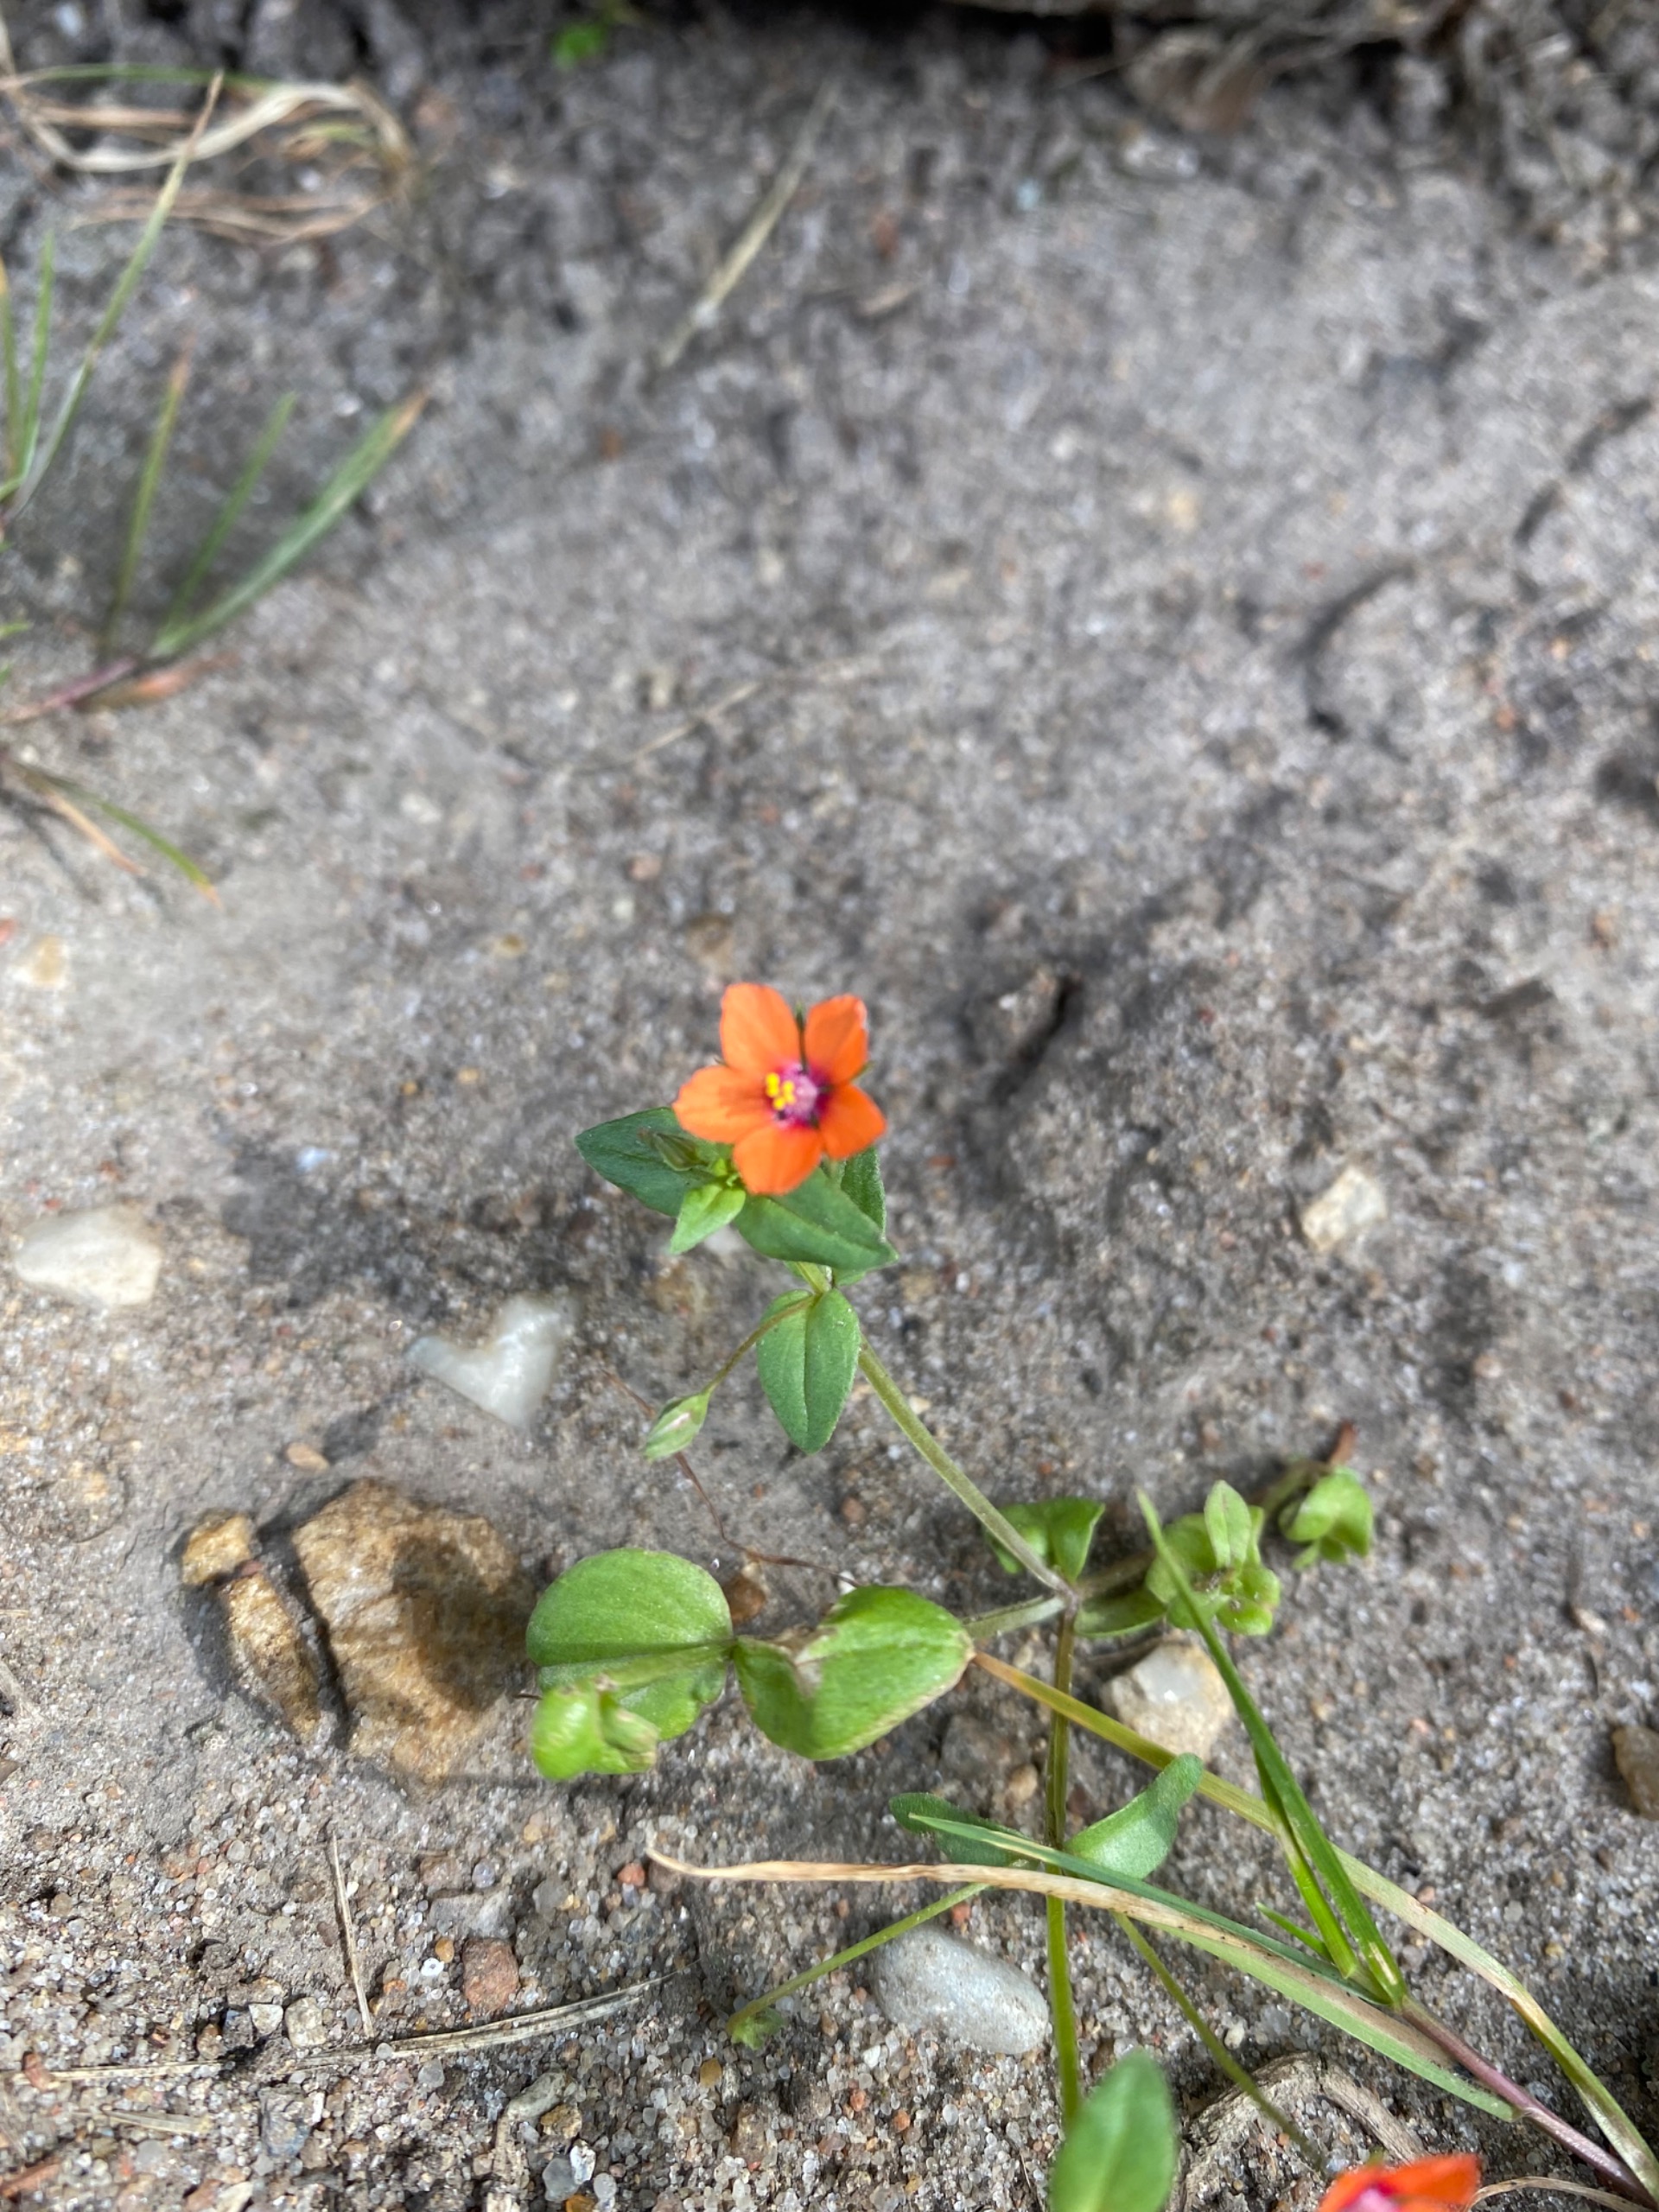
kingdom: Plantae
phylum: Tracheophyta
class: Magnoliopsida
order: Ericales
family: Primulaceae
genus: Lysimachia
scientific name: Lysimachia arvensis
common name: Rød arve
